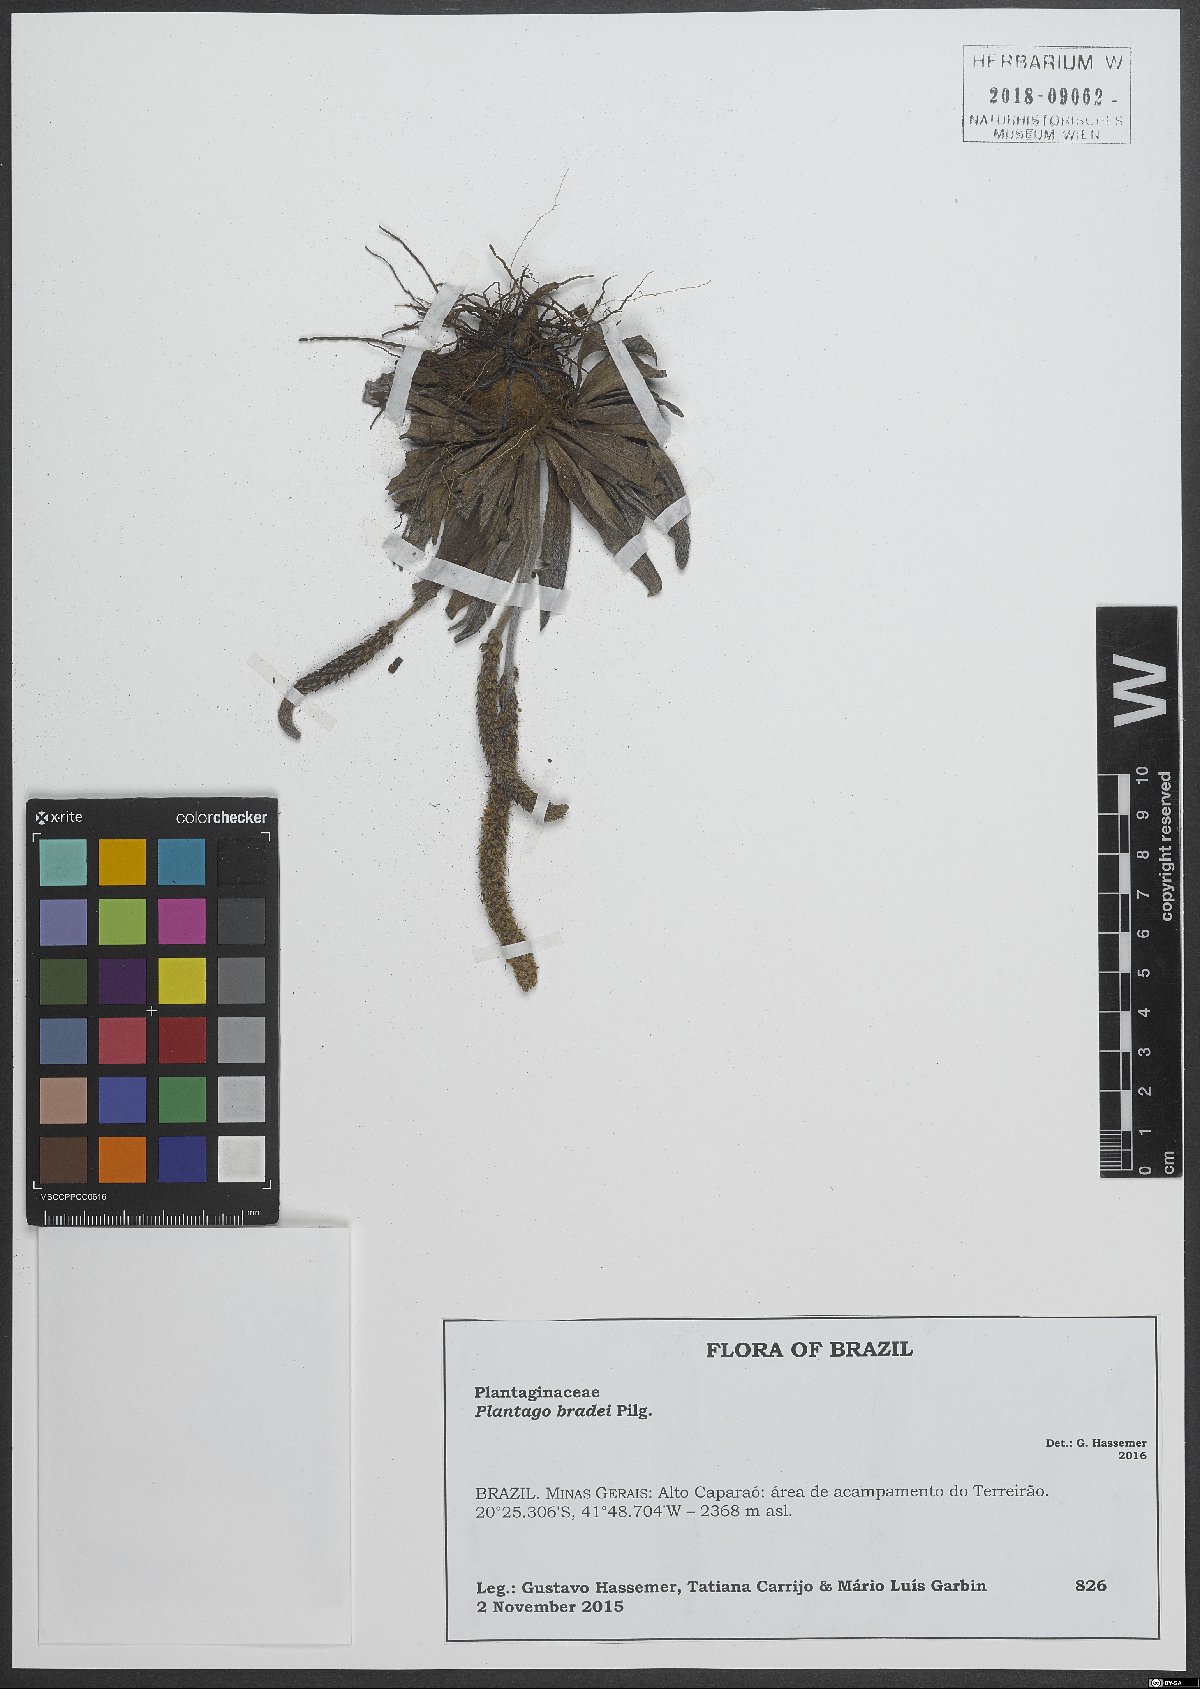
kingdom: Plantae
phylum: Tracheophyta
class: Magnoliopsida
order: Lamiales
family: Plantaginaceae
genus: Plantago
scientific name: Plantago bradei
